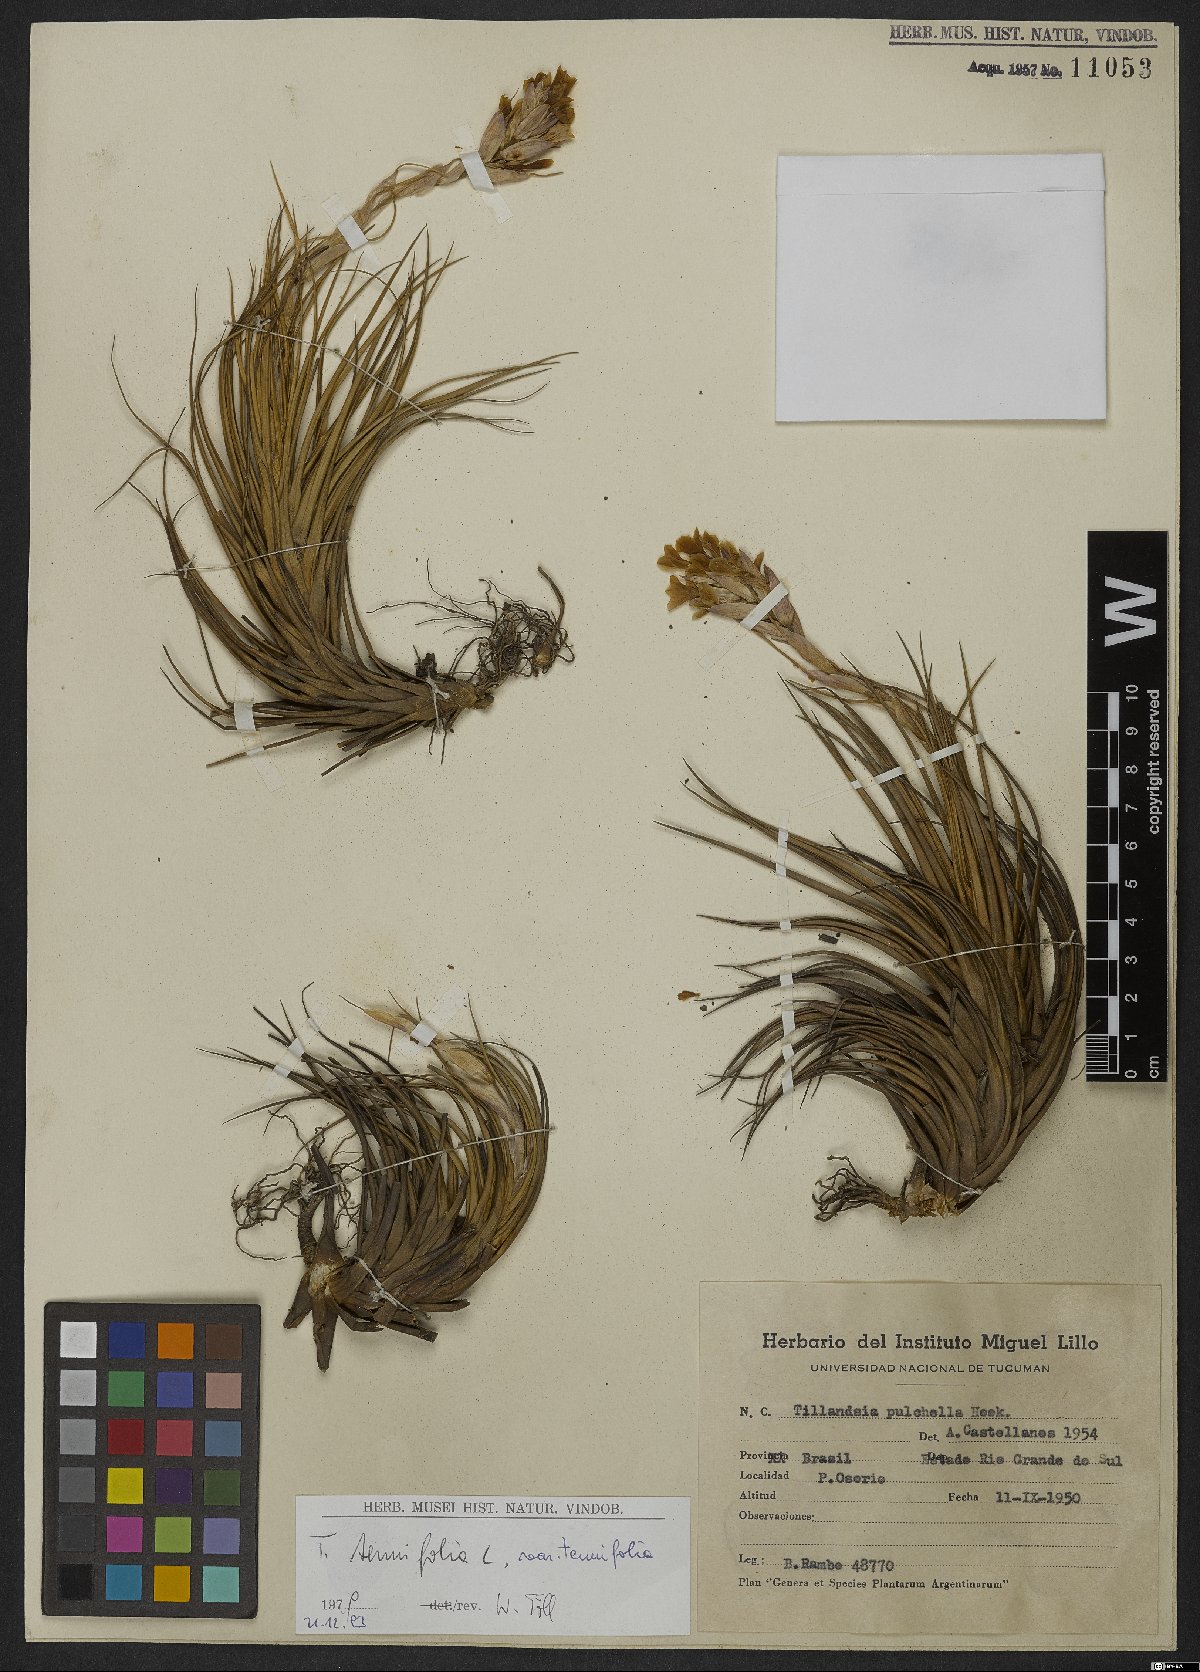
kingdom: Plantae
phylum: Tracheophyta
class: Liliopsida
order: Poales
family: Bromeliaceae
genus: Tillandsia
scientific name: Tillandsia tenuifolia
